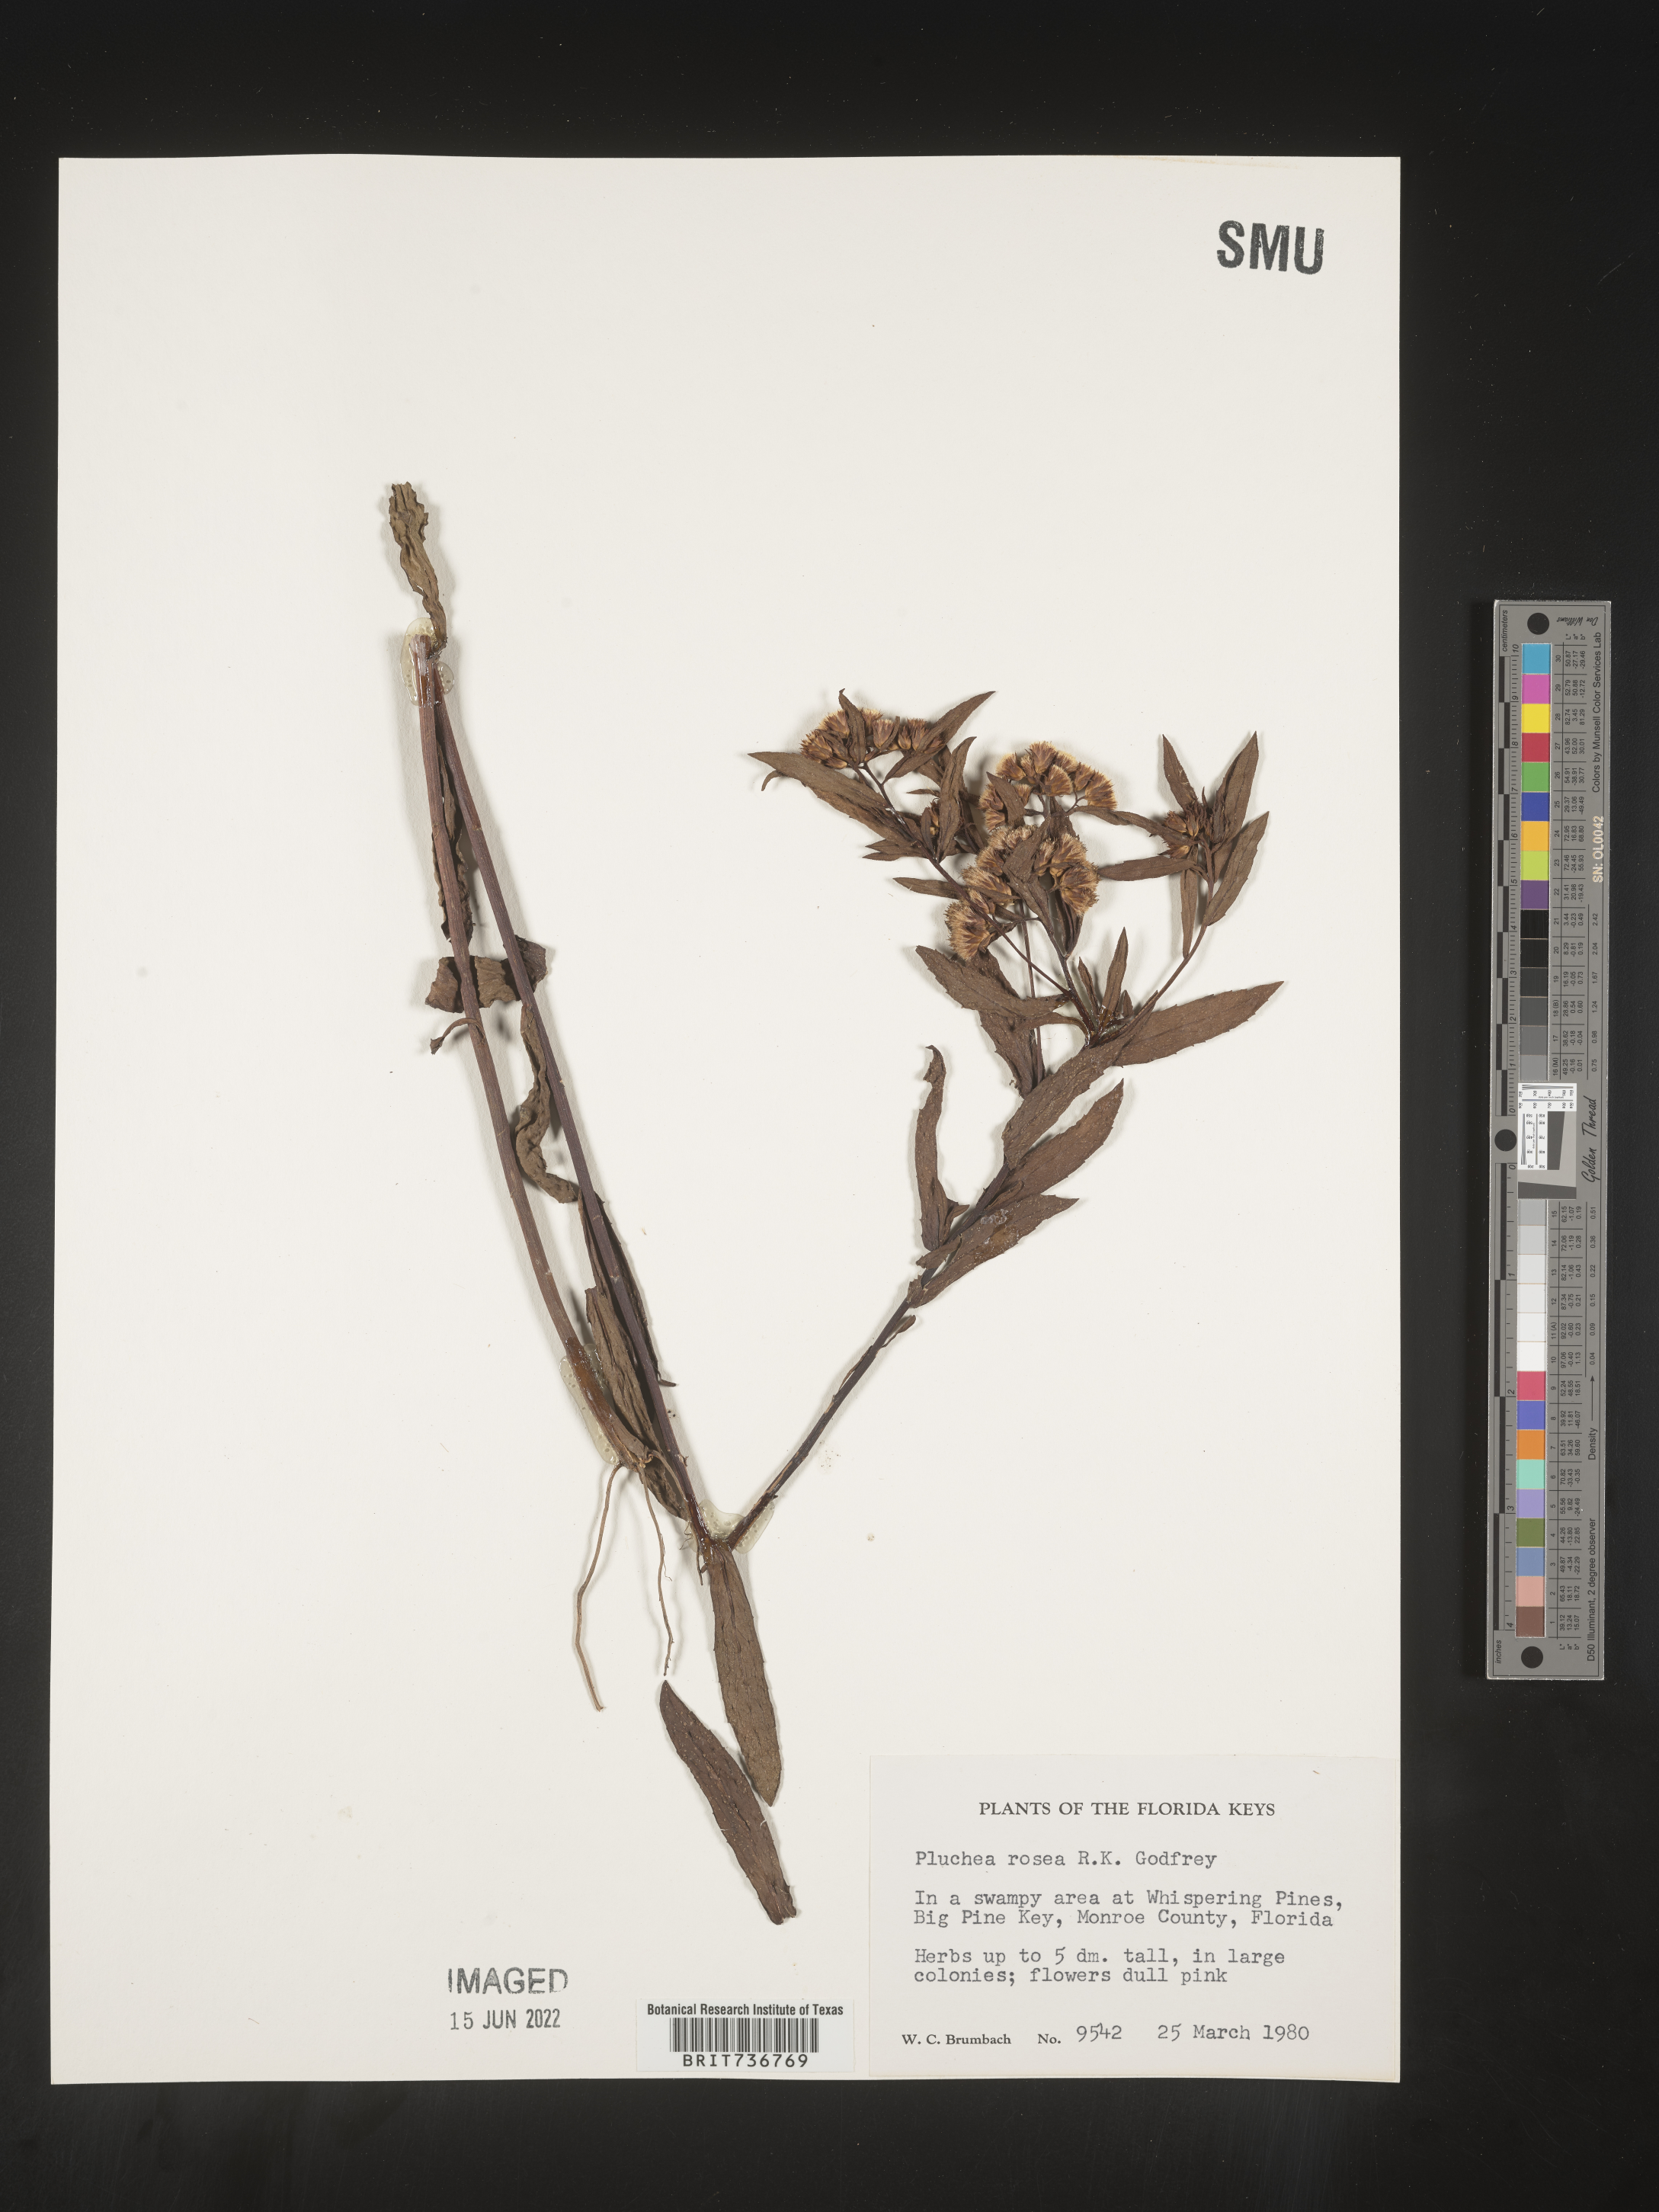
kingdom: Plantae
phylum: Tracheophyta
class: Magnoliopsida
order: Asterales
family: Asteraceae
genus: Pluchea
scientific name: Pluchea baccharis
